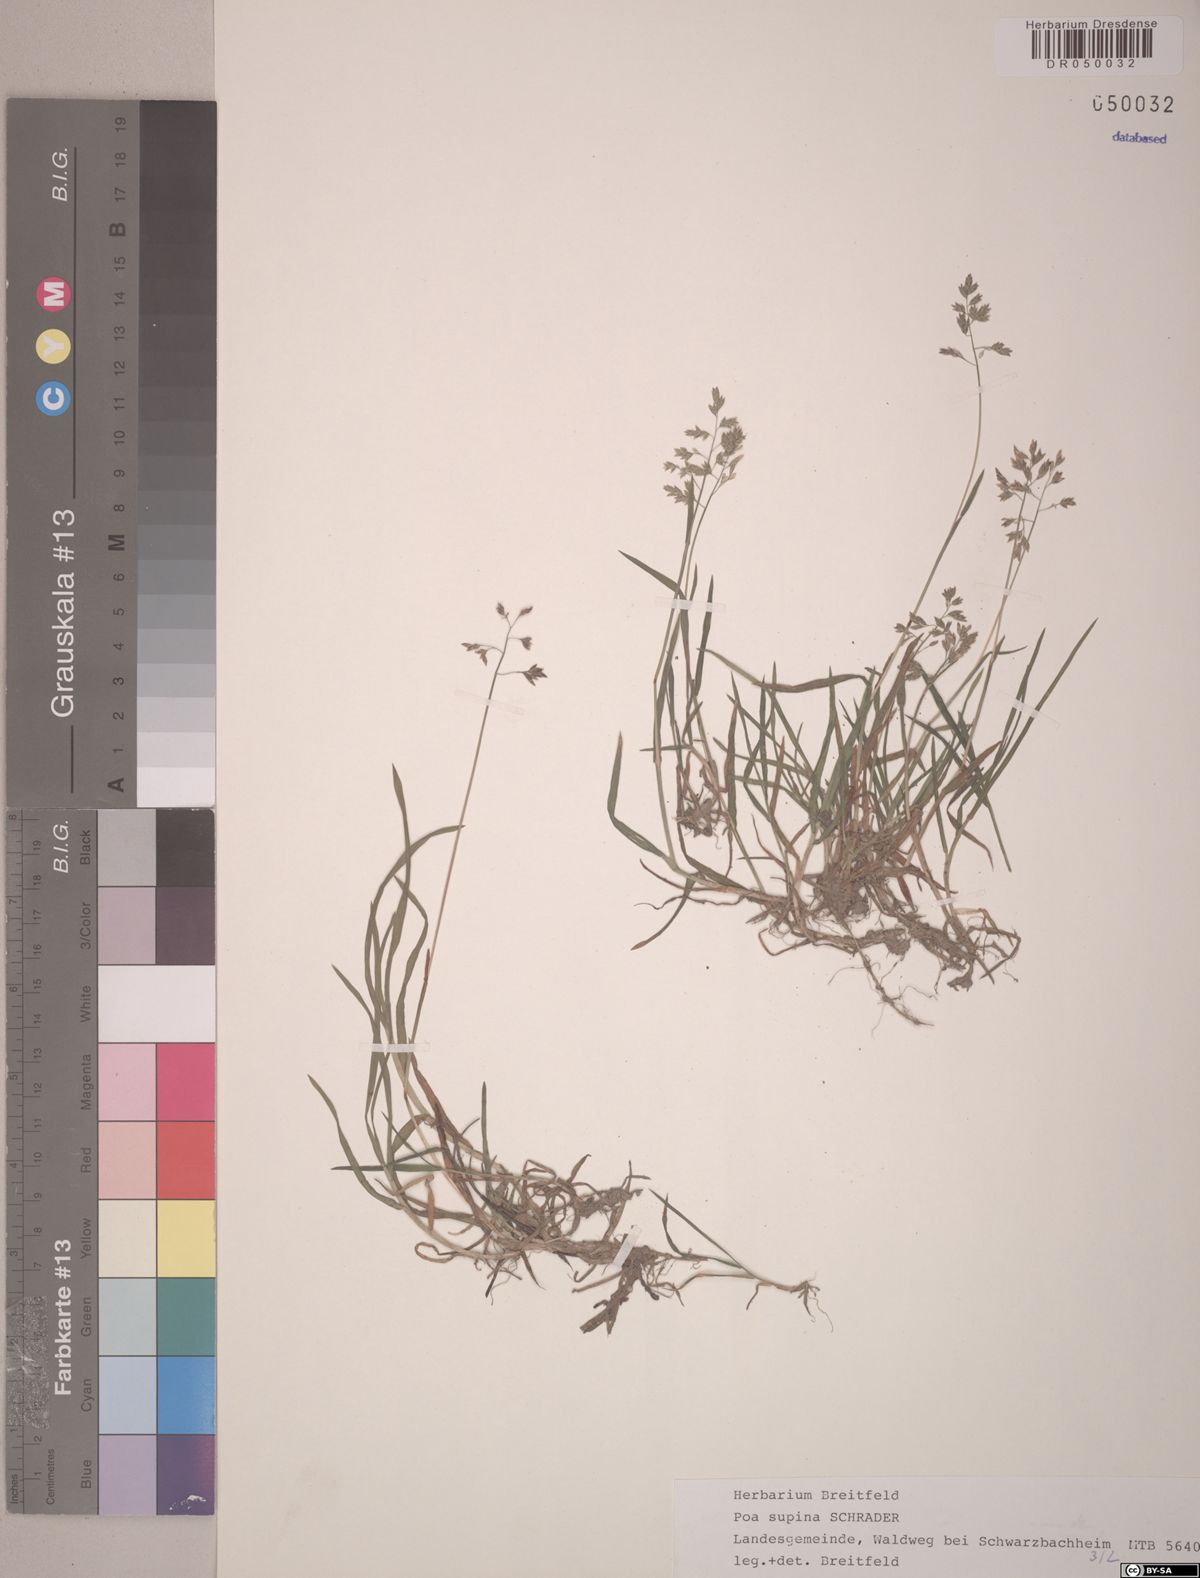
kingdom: Plantae
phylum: Tracheophyta
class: Liliopsida
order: Poales
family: Poaceae
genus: Poa
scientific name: Poa supina
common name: Supina bluegrass
